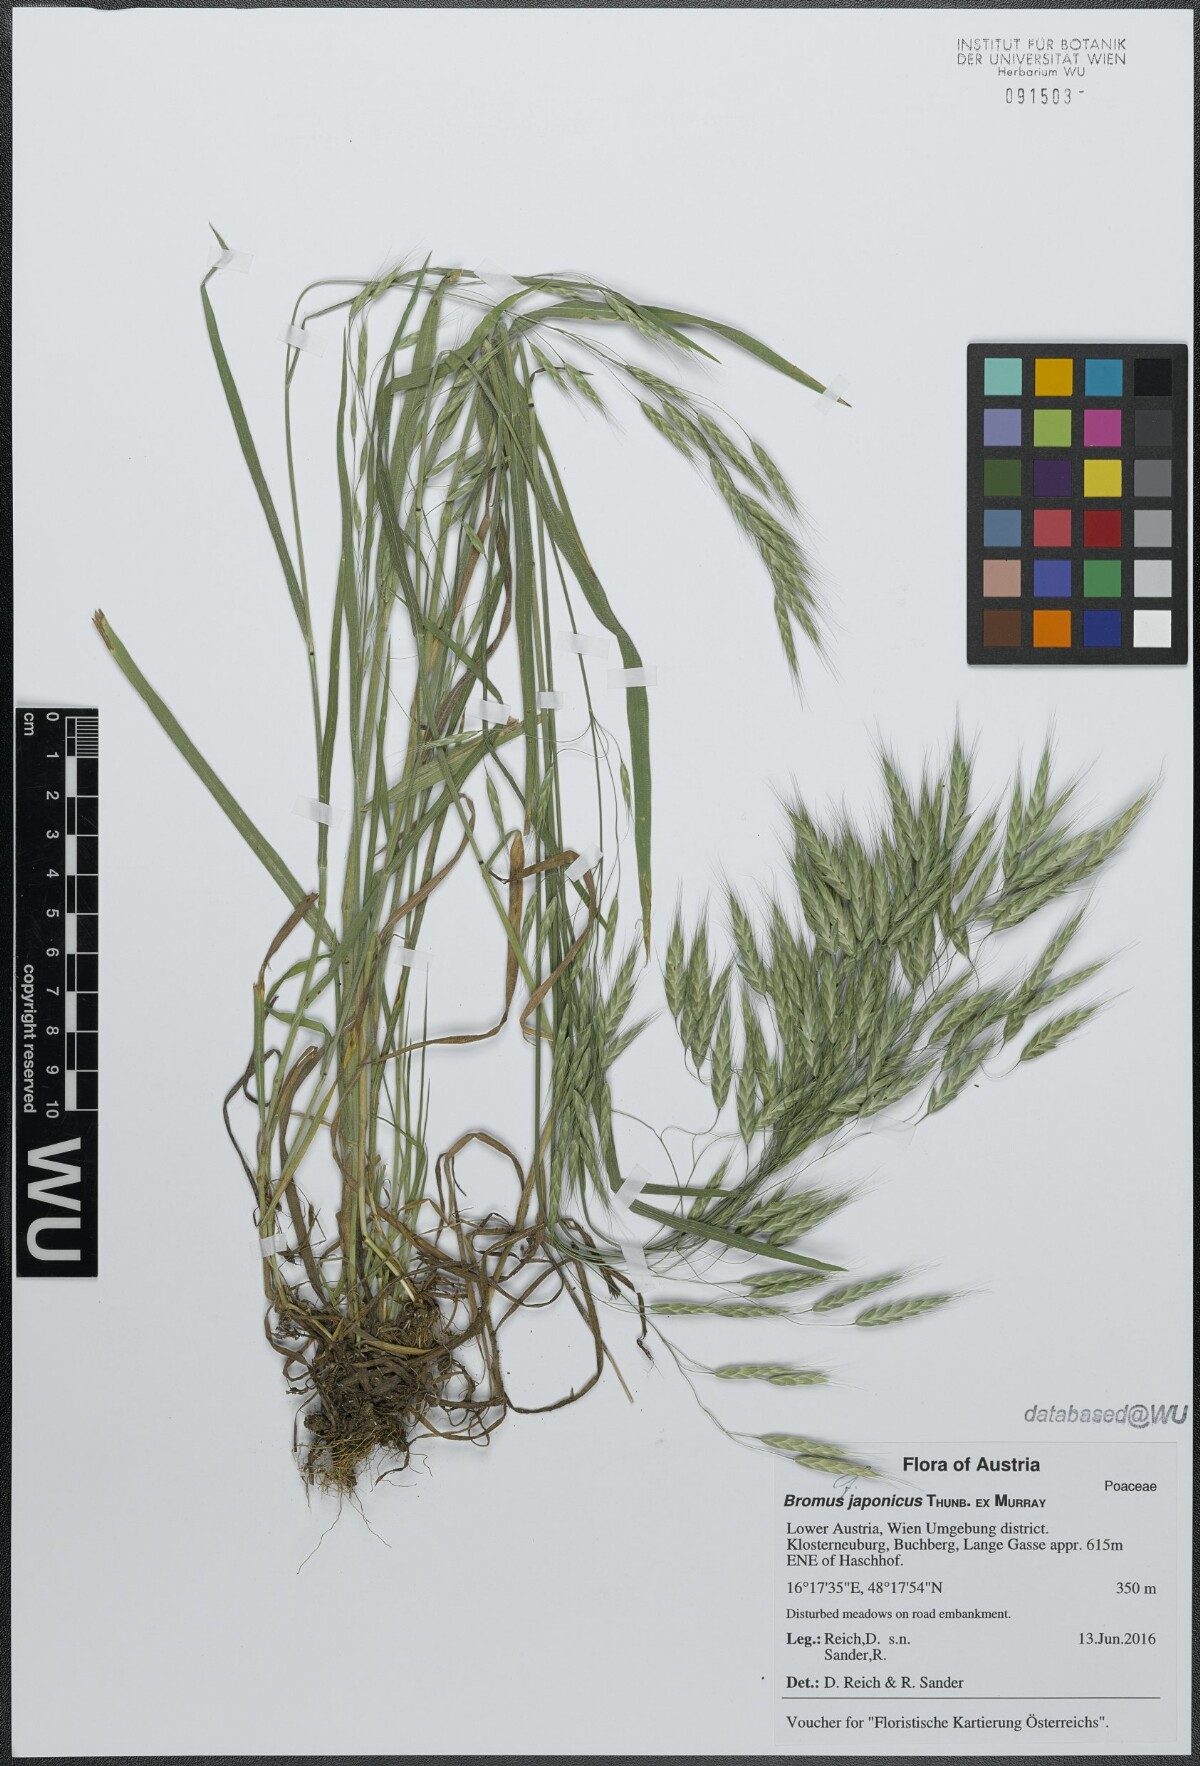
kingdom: Plantae
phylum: Tracheophyta
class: Liliopsida
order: Poales
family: Poaceae
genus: Bromus
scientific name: Bromus japonicus
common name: Japanese brome
